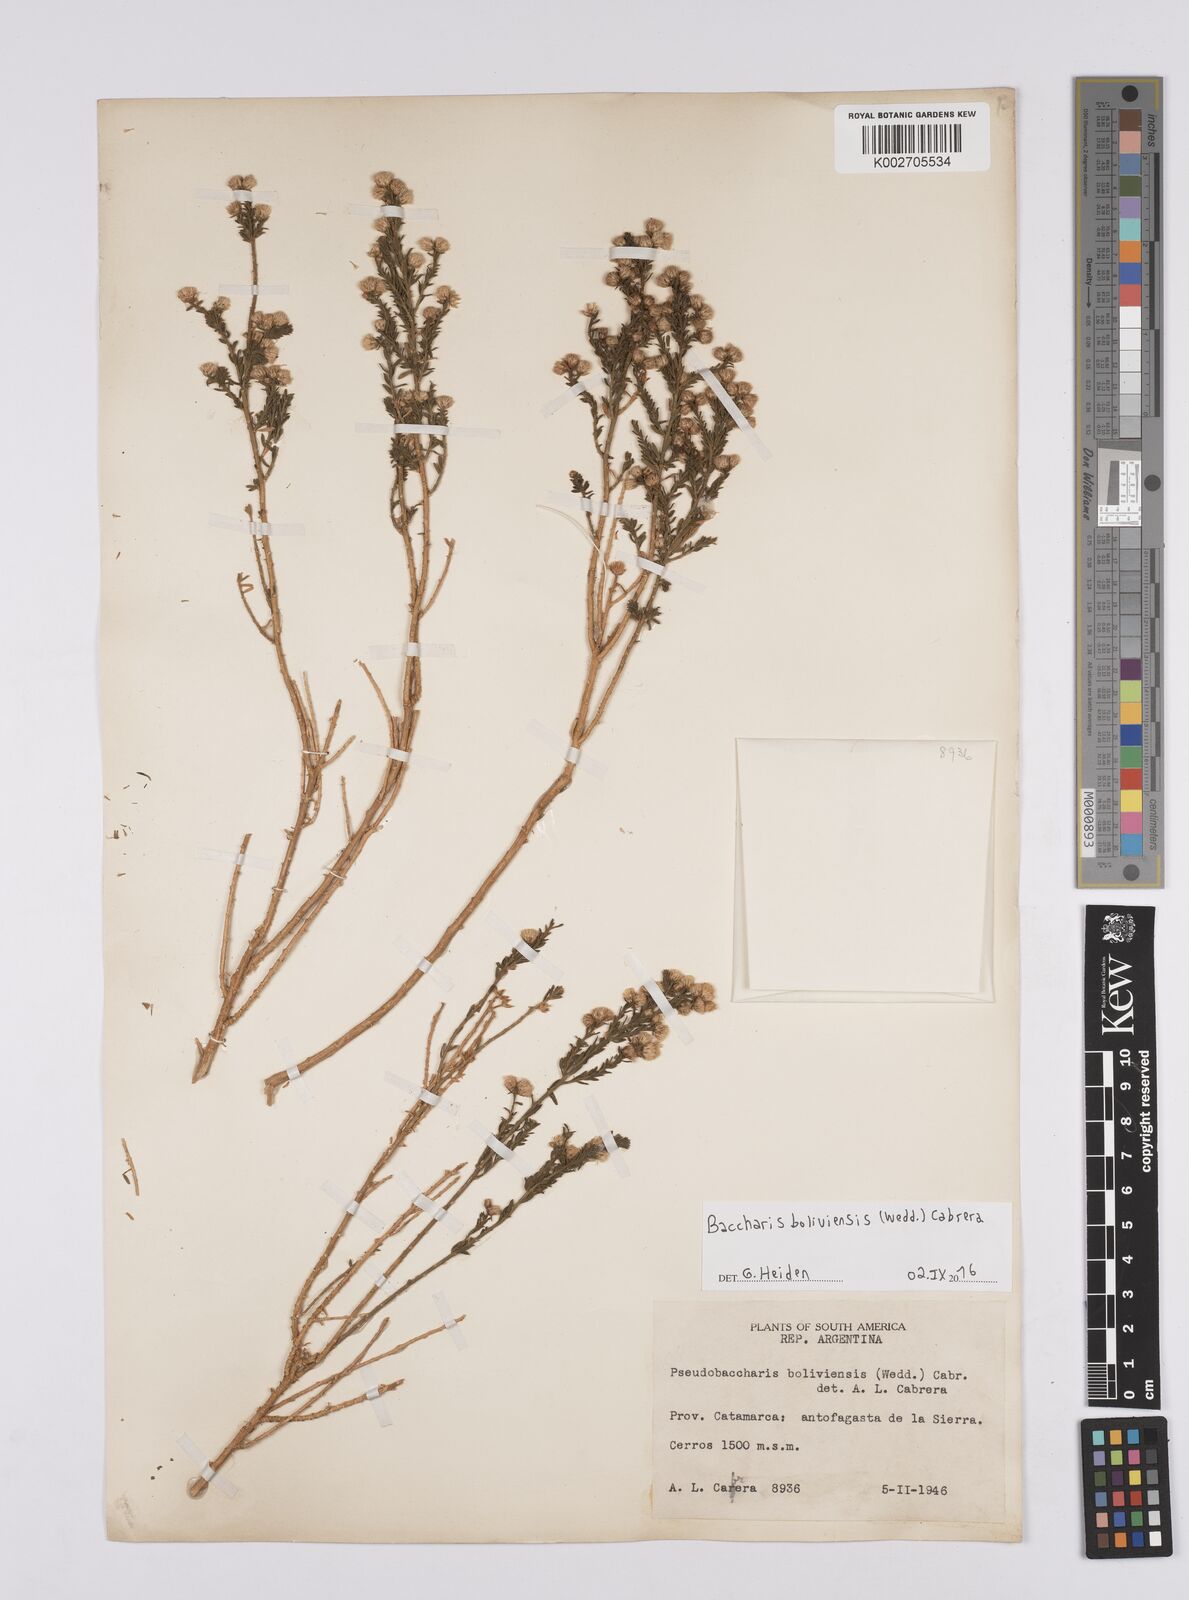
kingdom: Plantae
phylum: Tracheophyta
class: Magnoliopsida
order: Asterales
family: Asteraceae
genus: Baccharis
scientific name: Baccharis bolivensis
